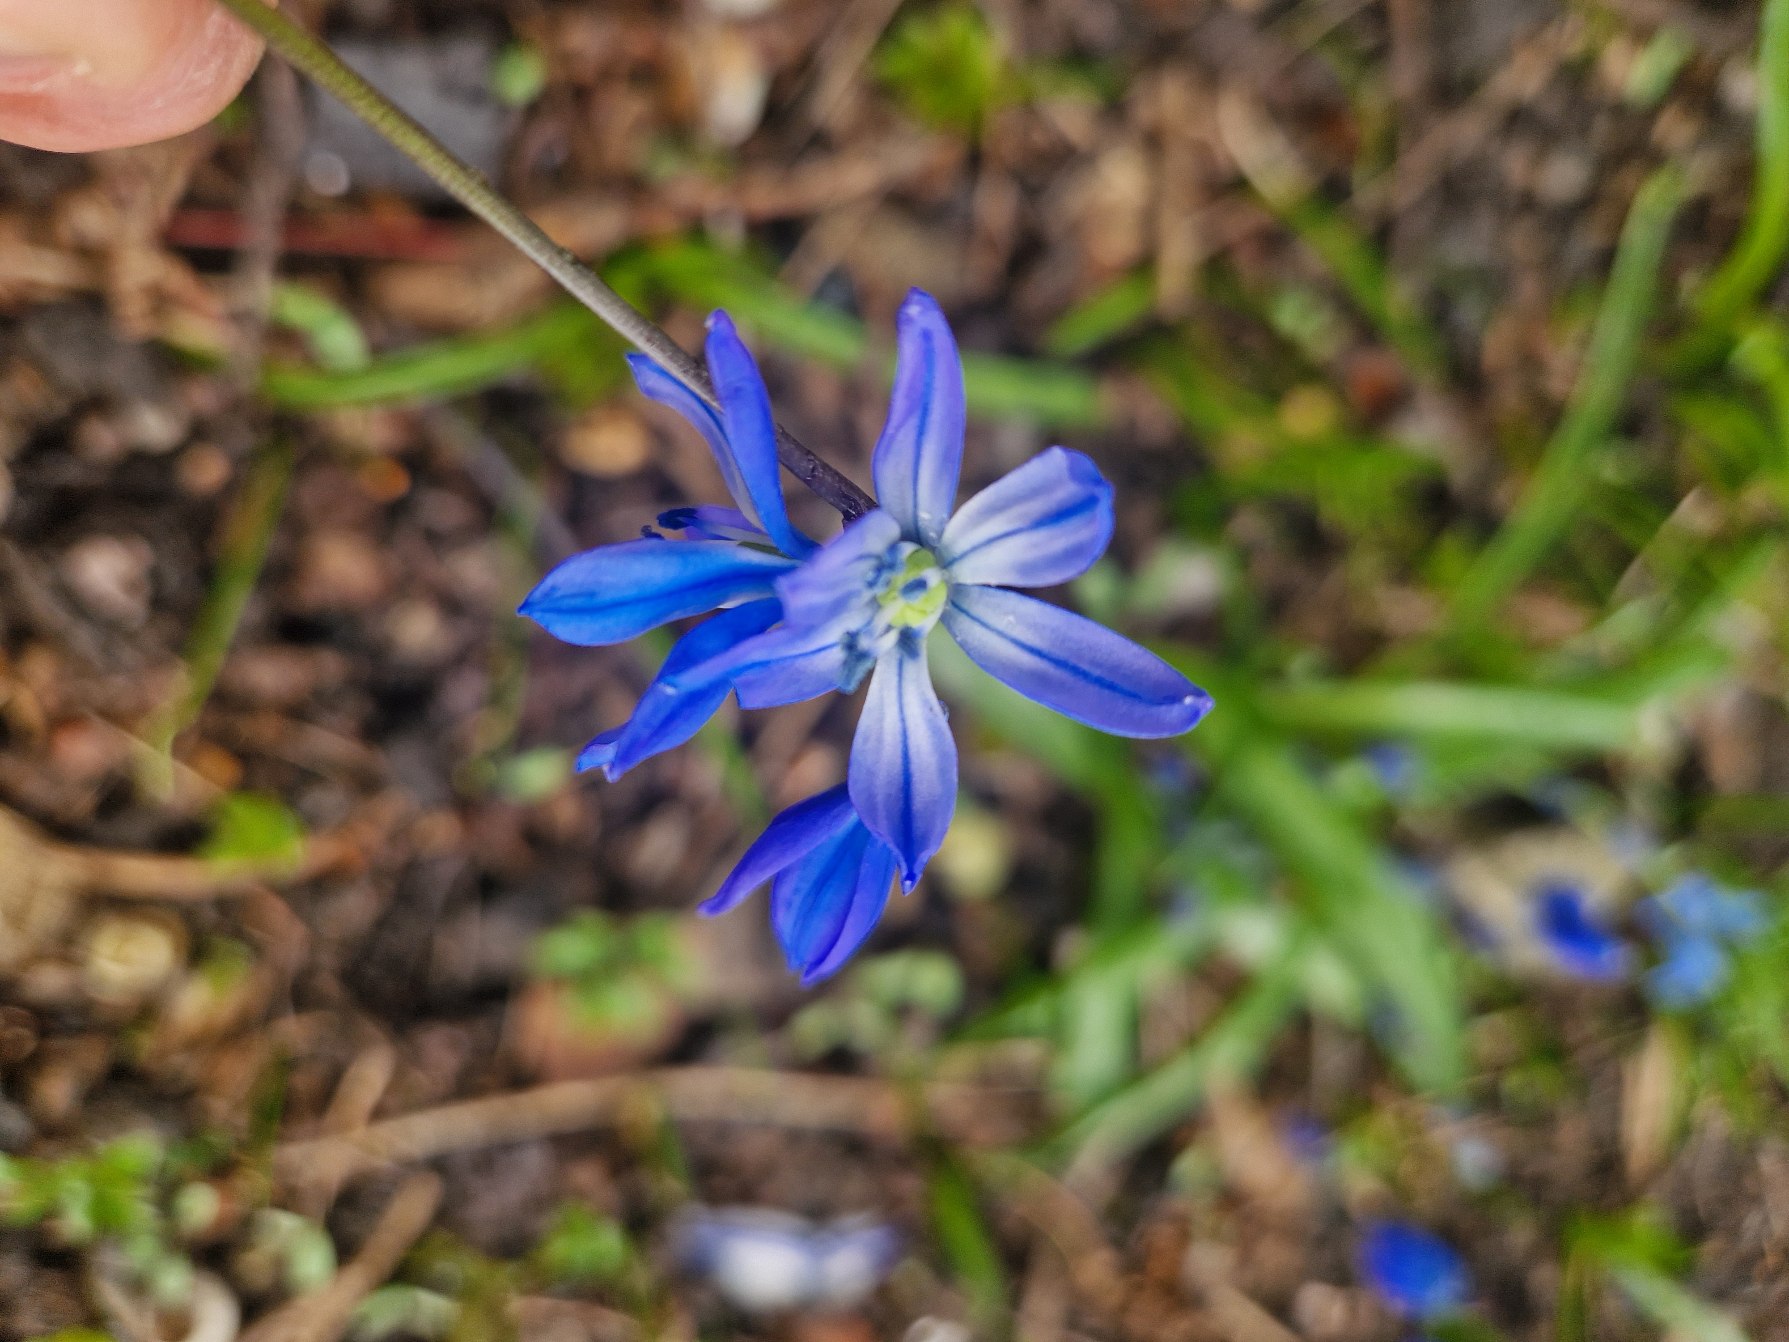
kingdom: Plantae
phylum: Tracheophyta
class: Liliopsida
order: Asparagales
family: Asparagaceae
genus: Scilla
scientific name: Scilla siberica
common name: Russisk skilla
